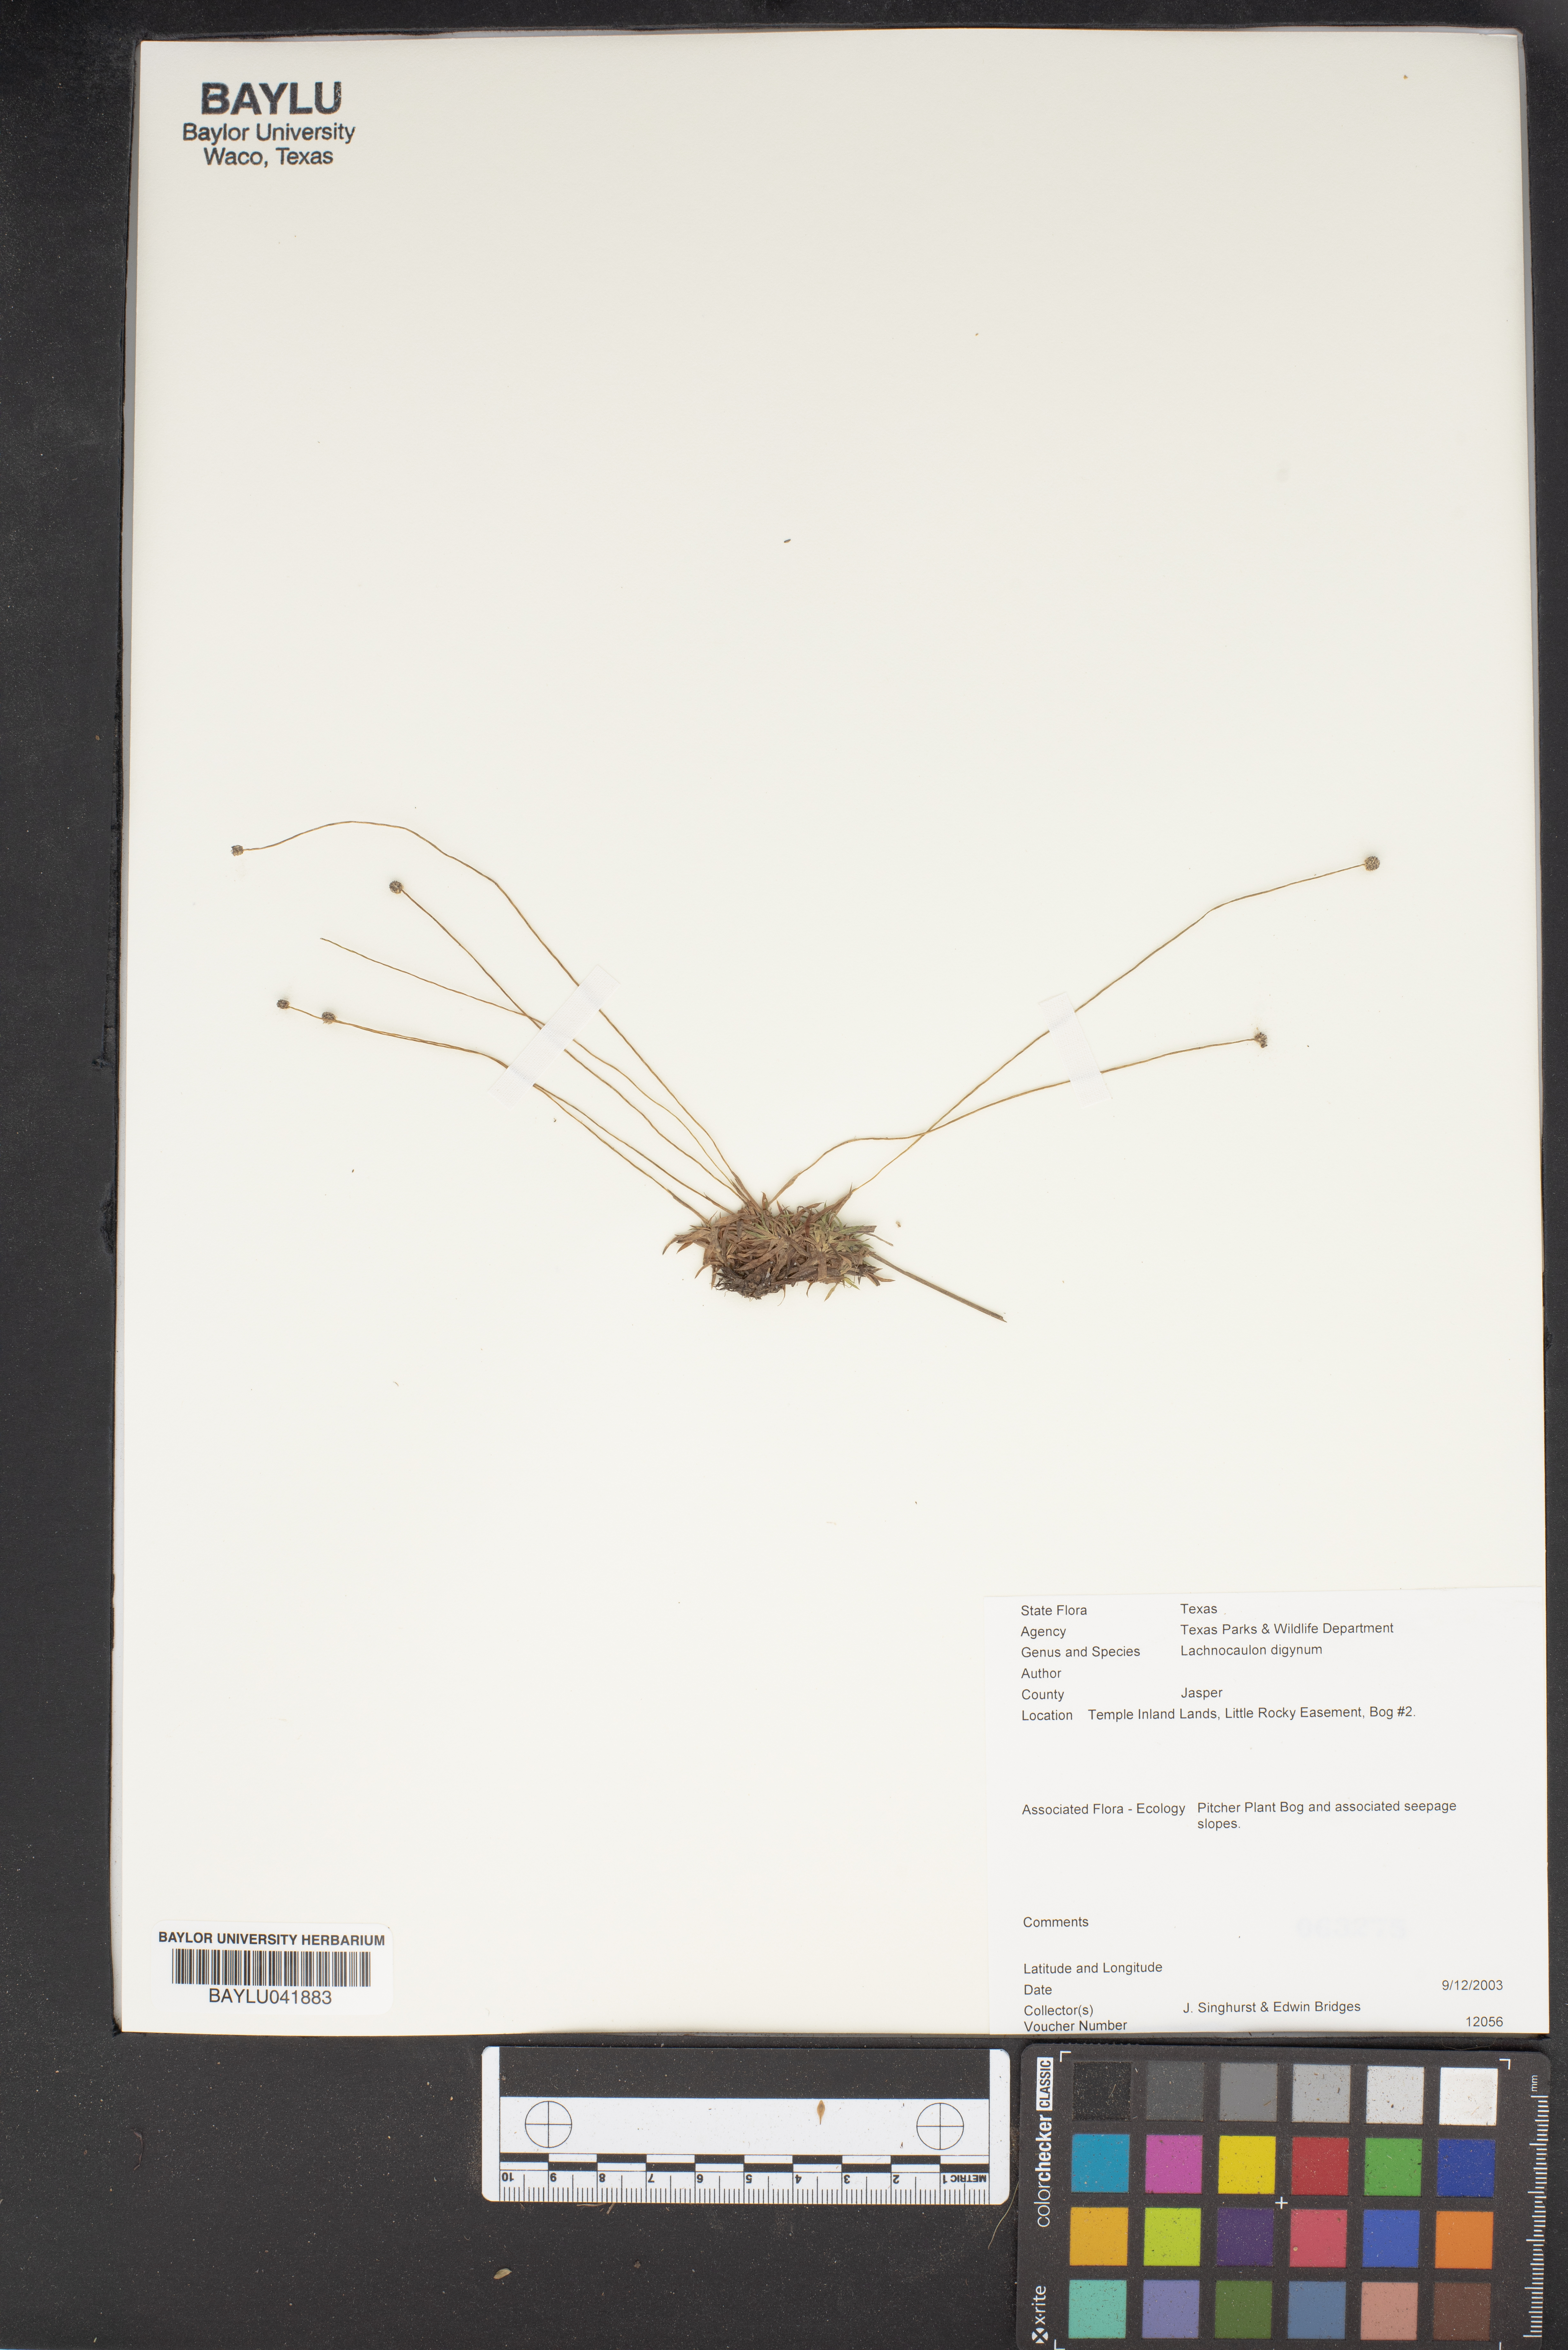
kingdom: Plantae
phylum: Tracheophyta
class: Liliopsida
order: Poales
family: Eriocaulaceae
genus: Paepalanthus
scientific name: Paepalanthus digynus
